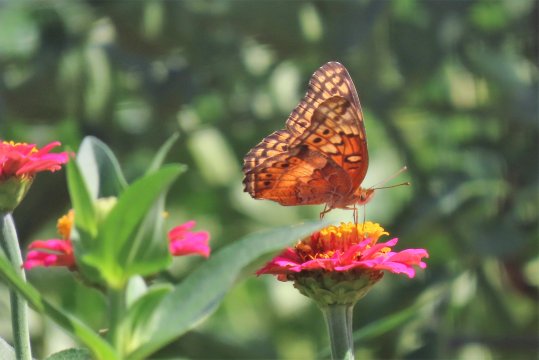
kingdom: Animalia
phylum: Arthropoda
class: Insecta
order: Lepidoptera
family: Nymphalidae
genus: Euptoieta
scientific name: Euptoieta claudia
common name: Variegated Fritillary
